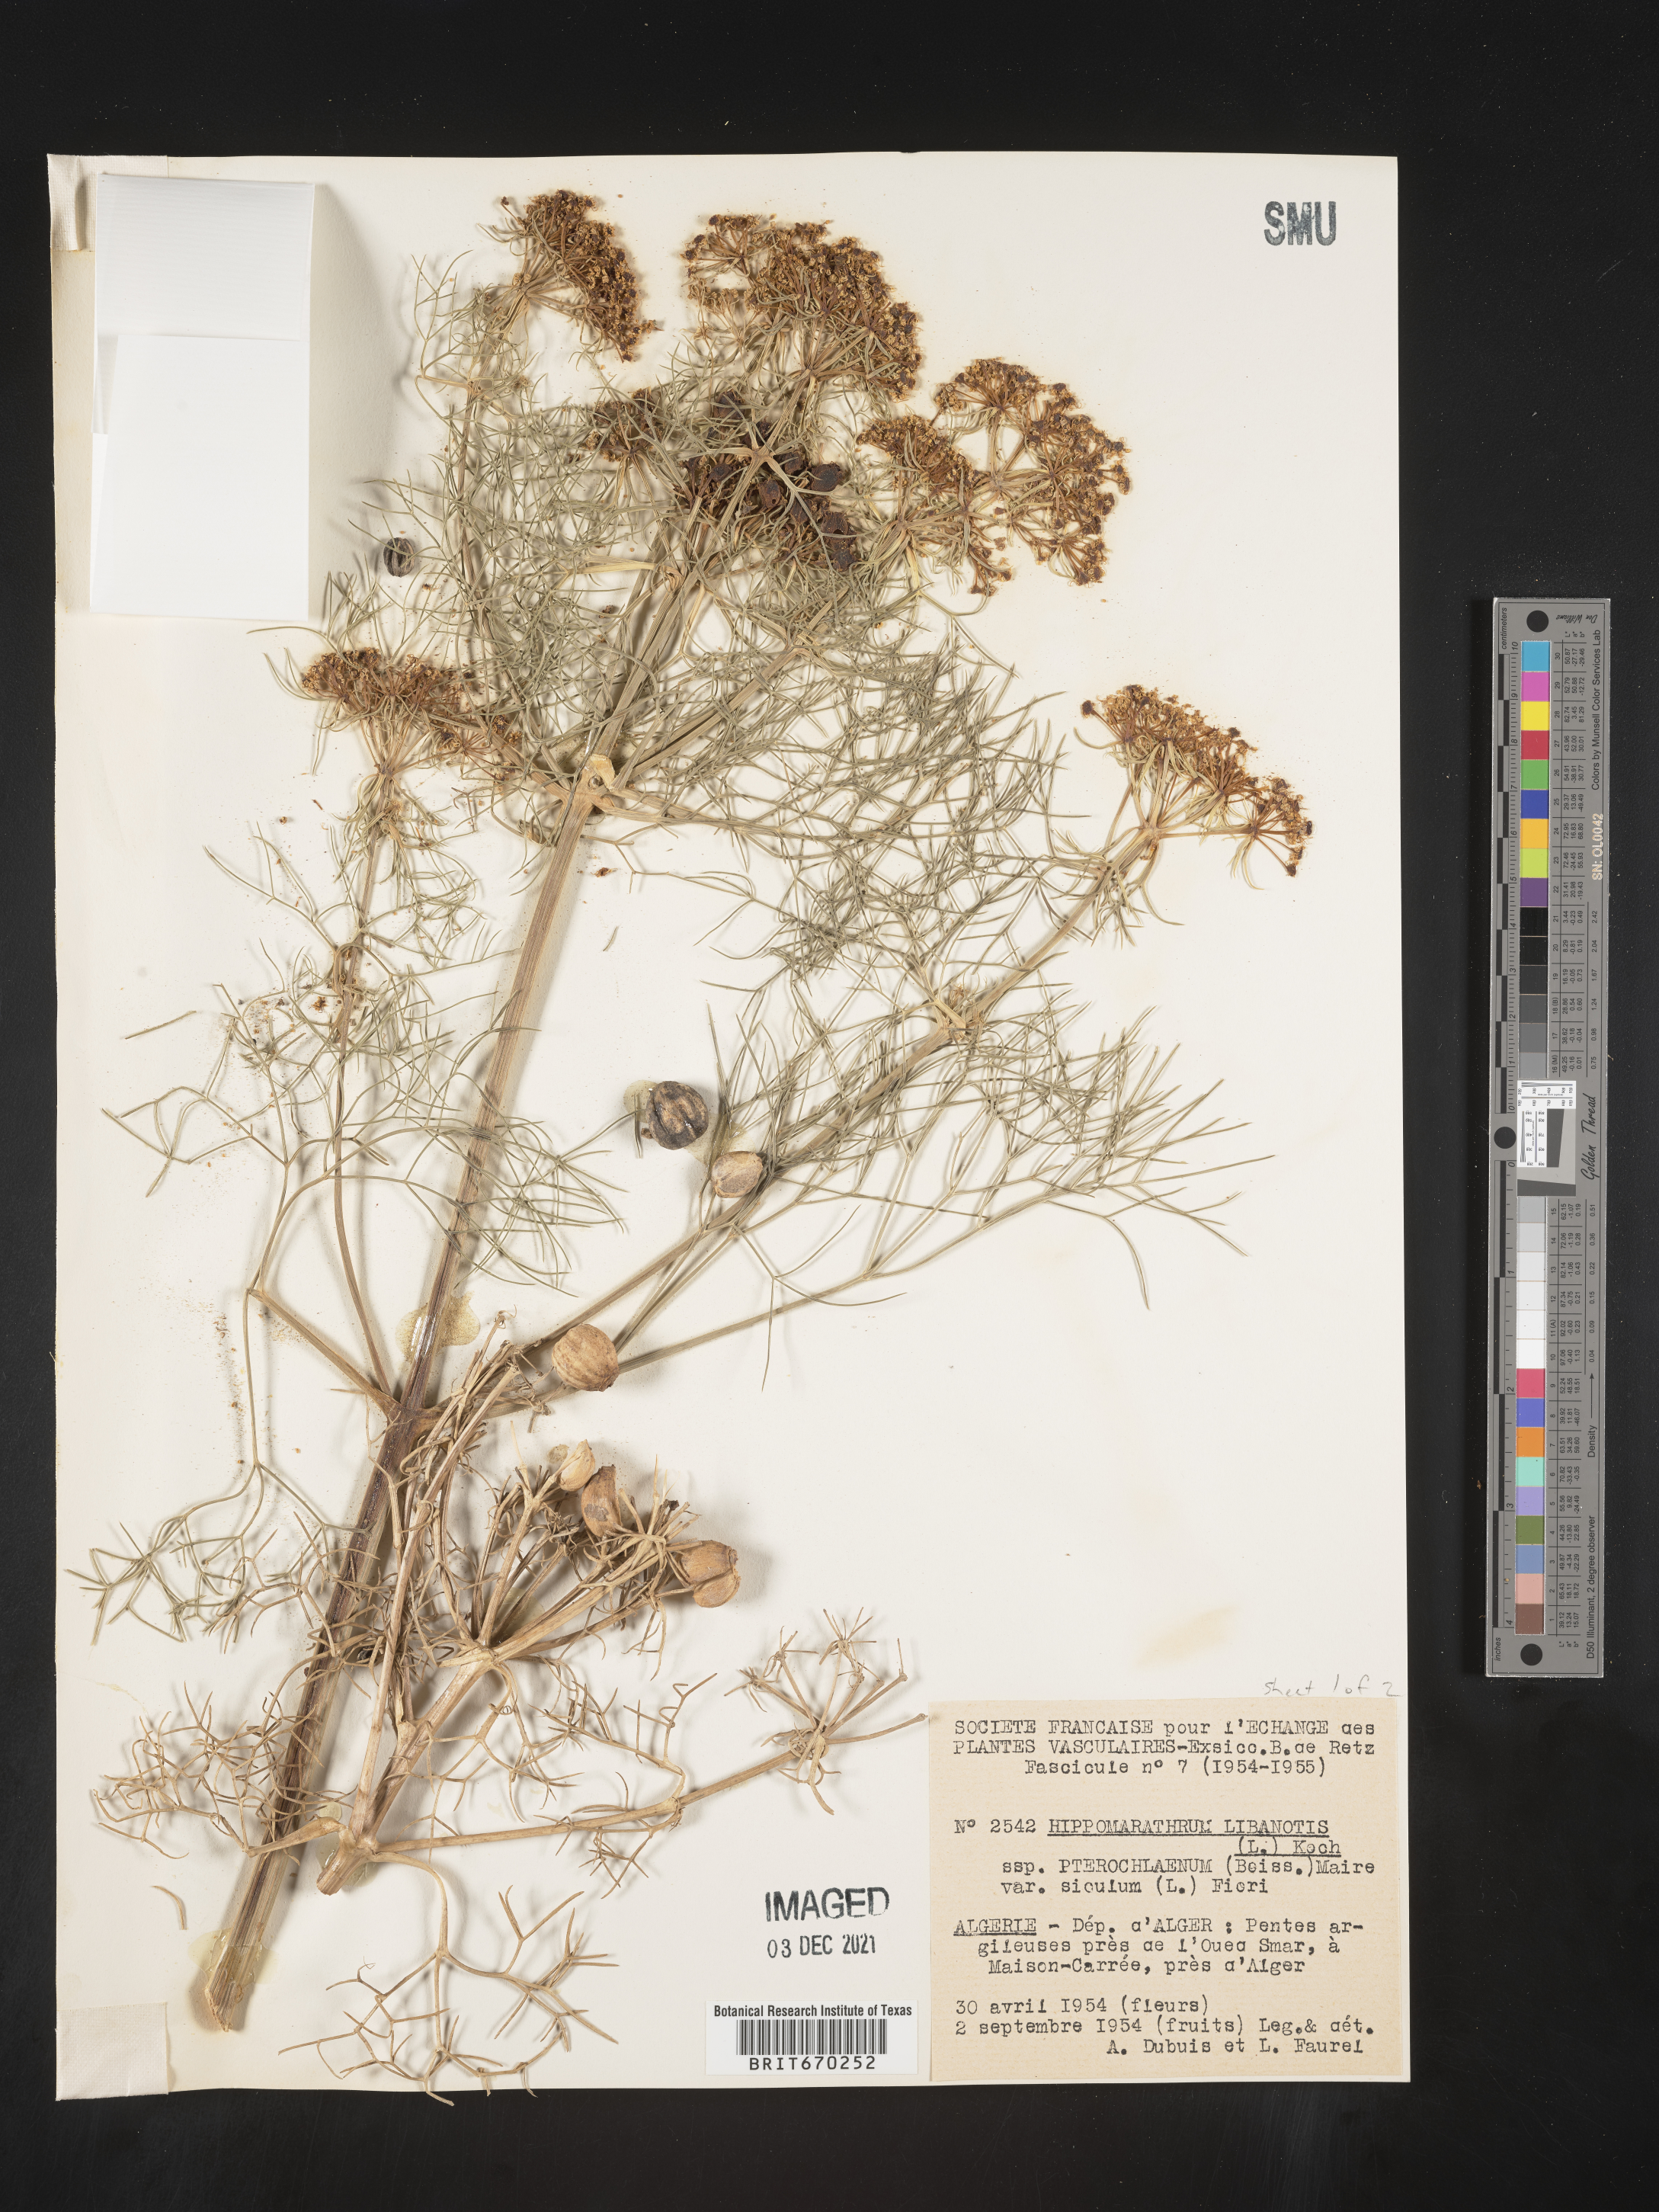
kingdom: Plantae
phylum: Tracheophyta
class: Magnoliopsida
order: Apiales
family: Apiaceae
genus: Hippomarathrum
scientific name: Hippomarathrum
